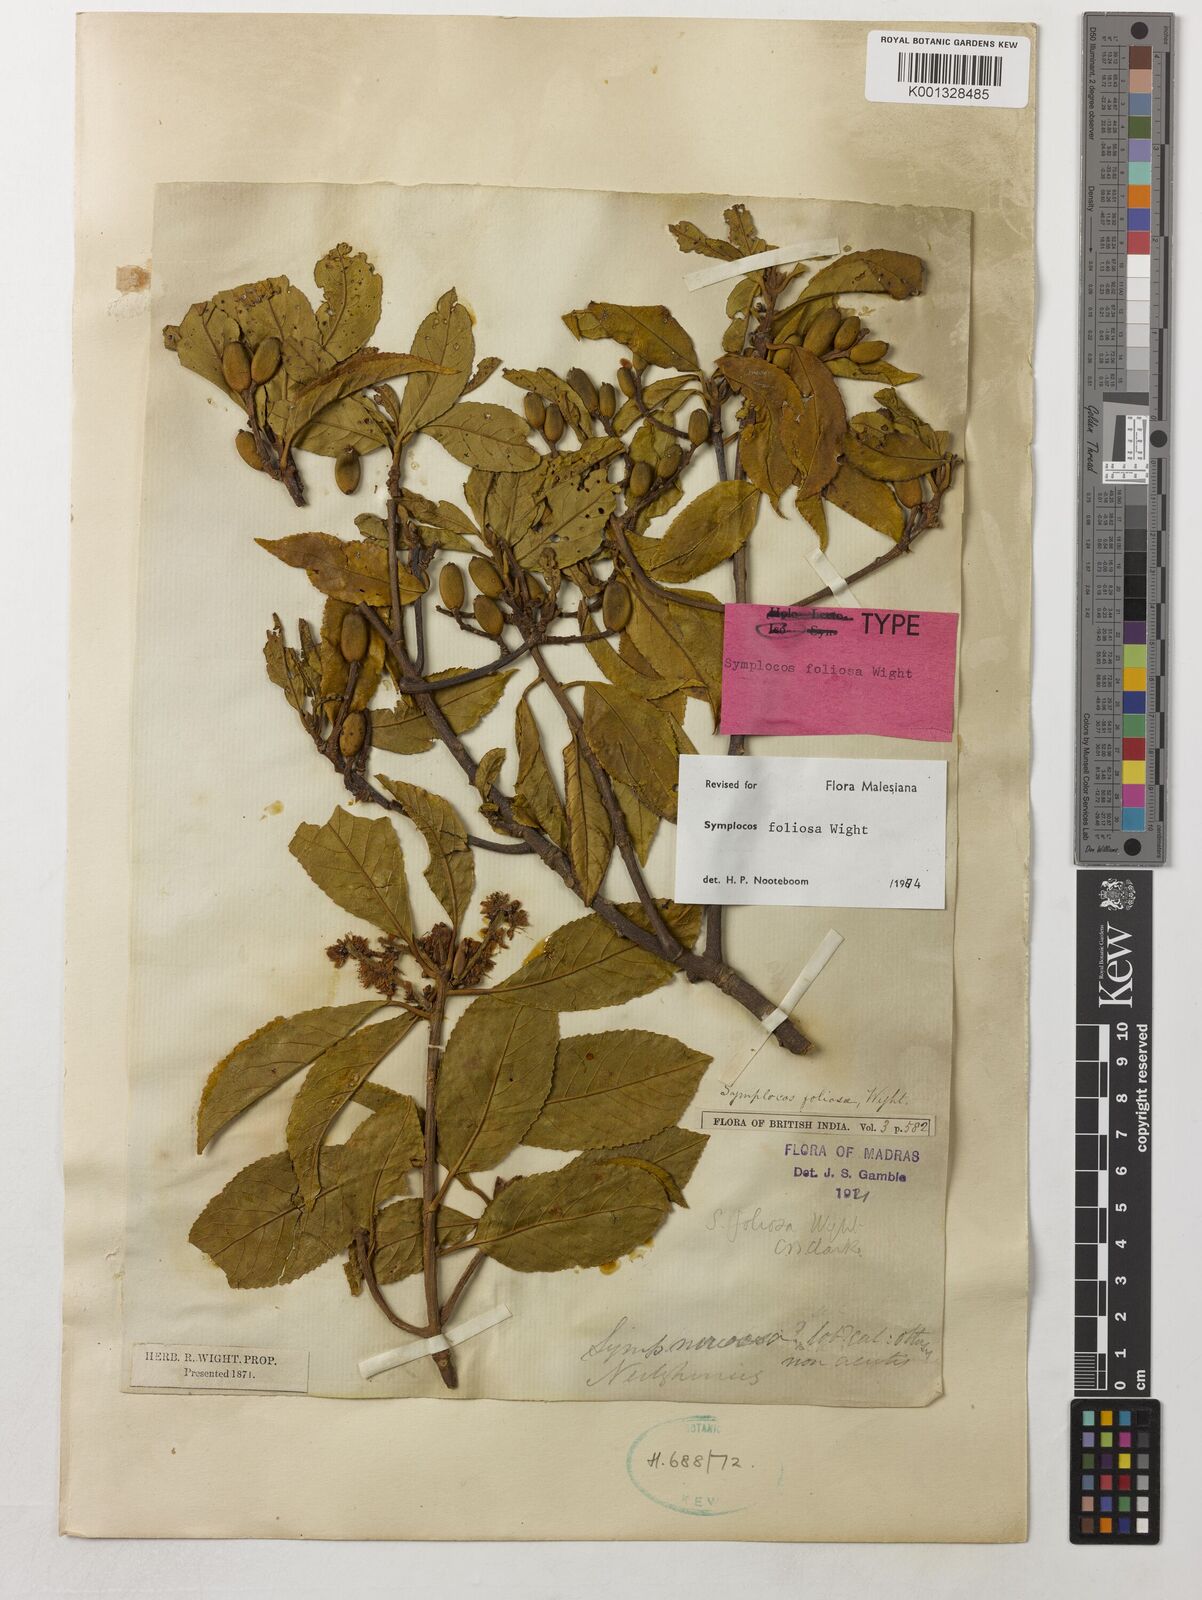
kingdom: Plantae
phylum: Tracheophyta
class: Magnoliopsida
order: Ericales
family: Symplocaceae
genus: Symplocos
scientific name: Symplocos foliosa
